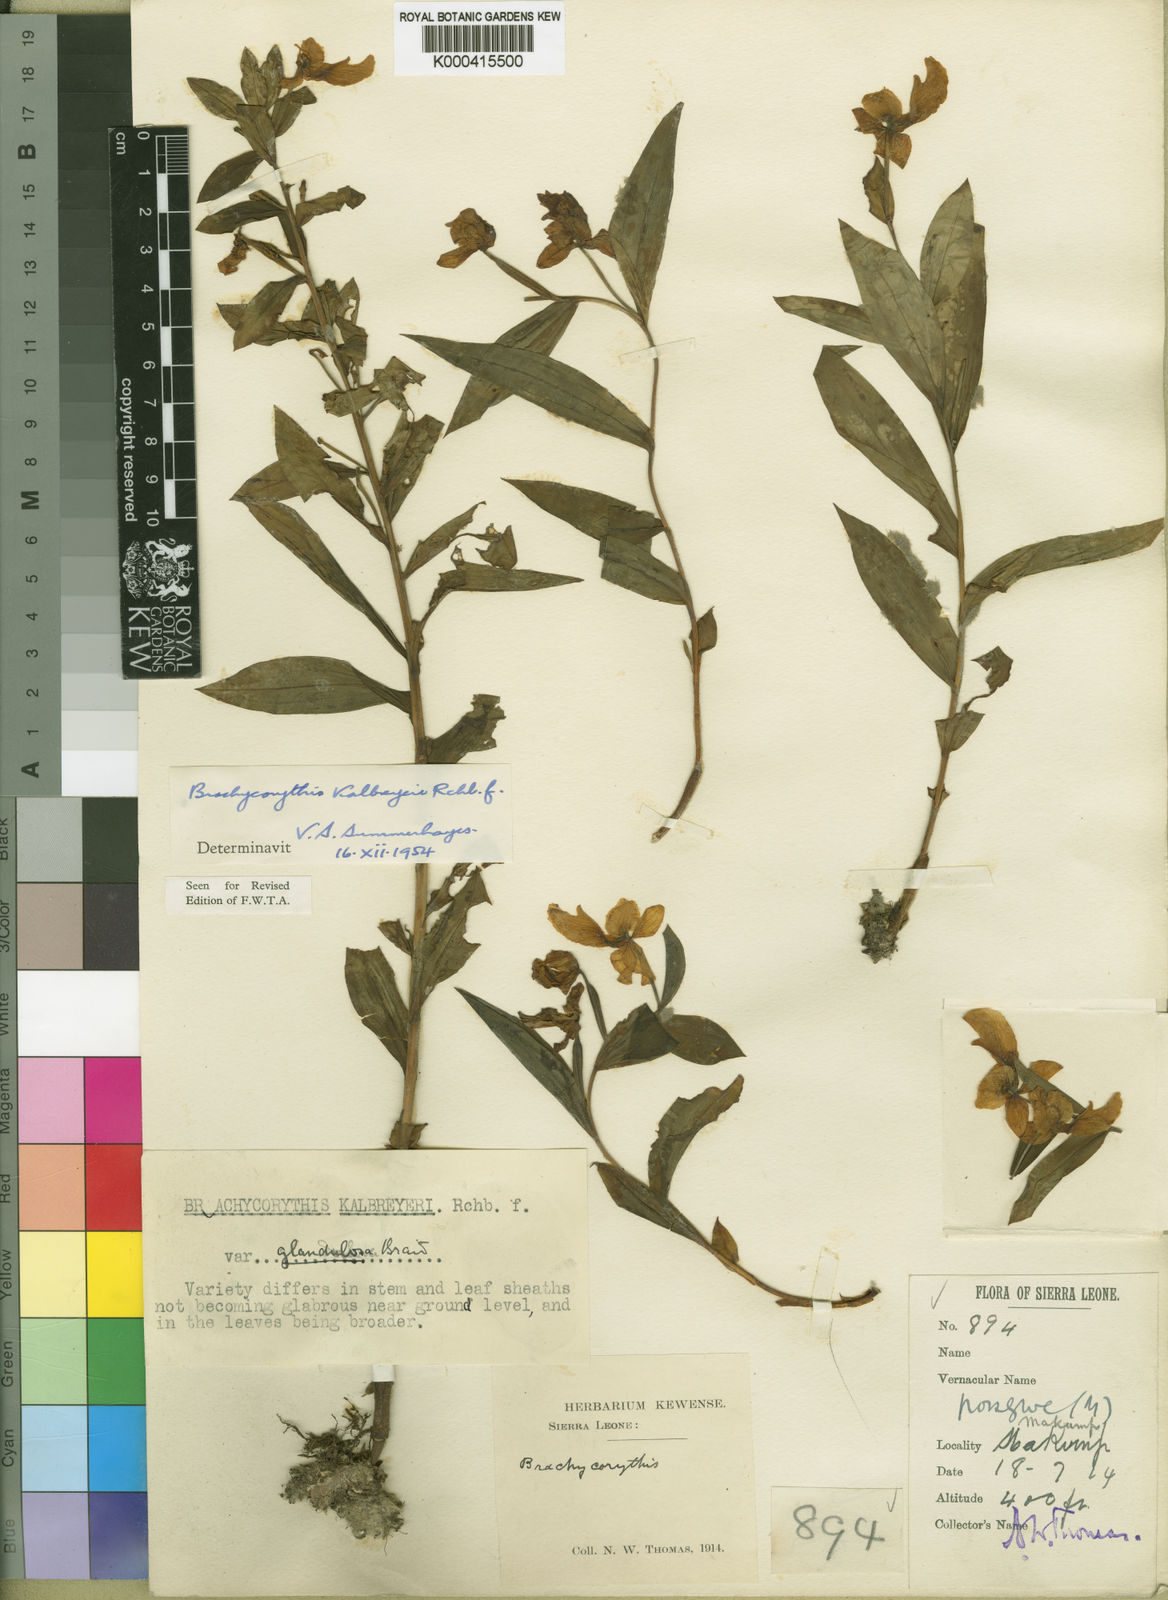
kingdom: Plantae
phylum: Tracheophyta
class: Liliopsida
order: Asparagales
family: Orchidaceae
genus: Brachycorythis
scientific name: Brachycorythis kalbreyeri
